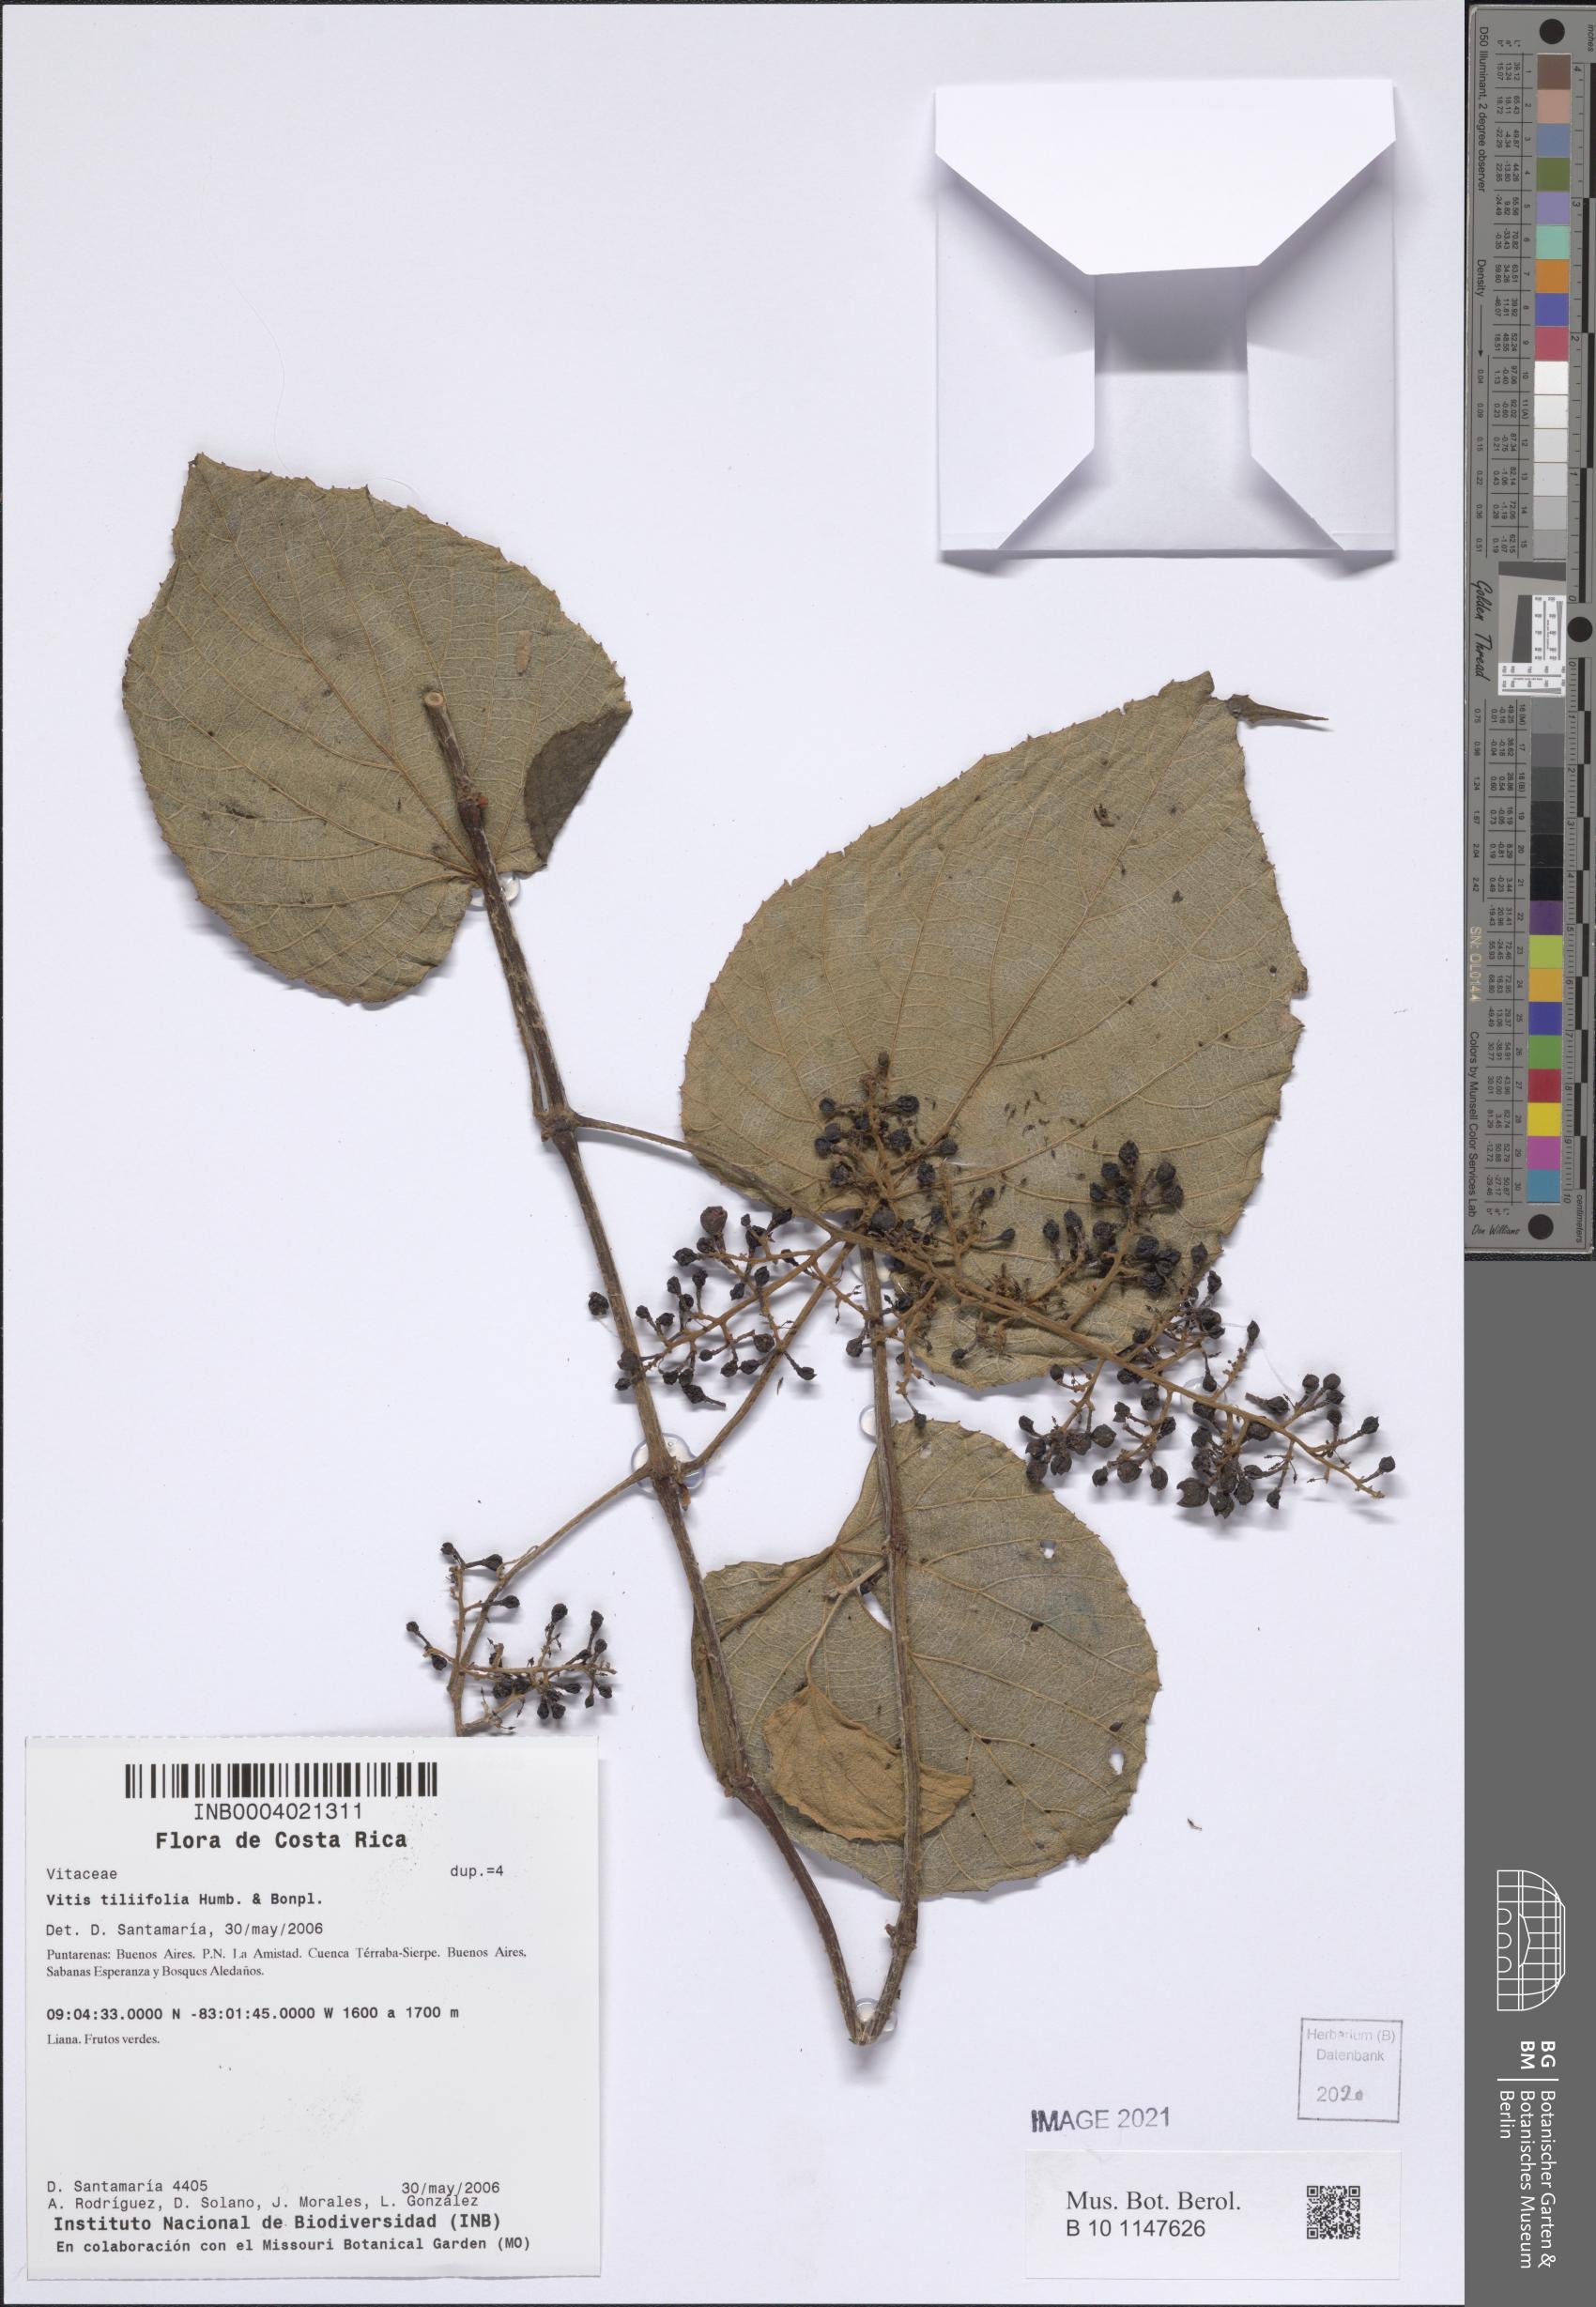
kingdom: Plantae
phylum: Tracheophyta
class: Magnoliopsida
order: Vitales
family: Vitaceae
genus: Vitis
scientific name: Vitis tiliifolia
